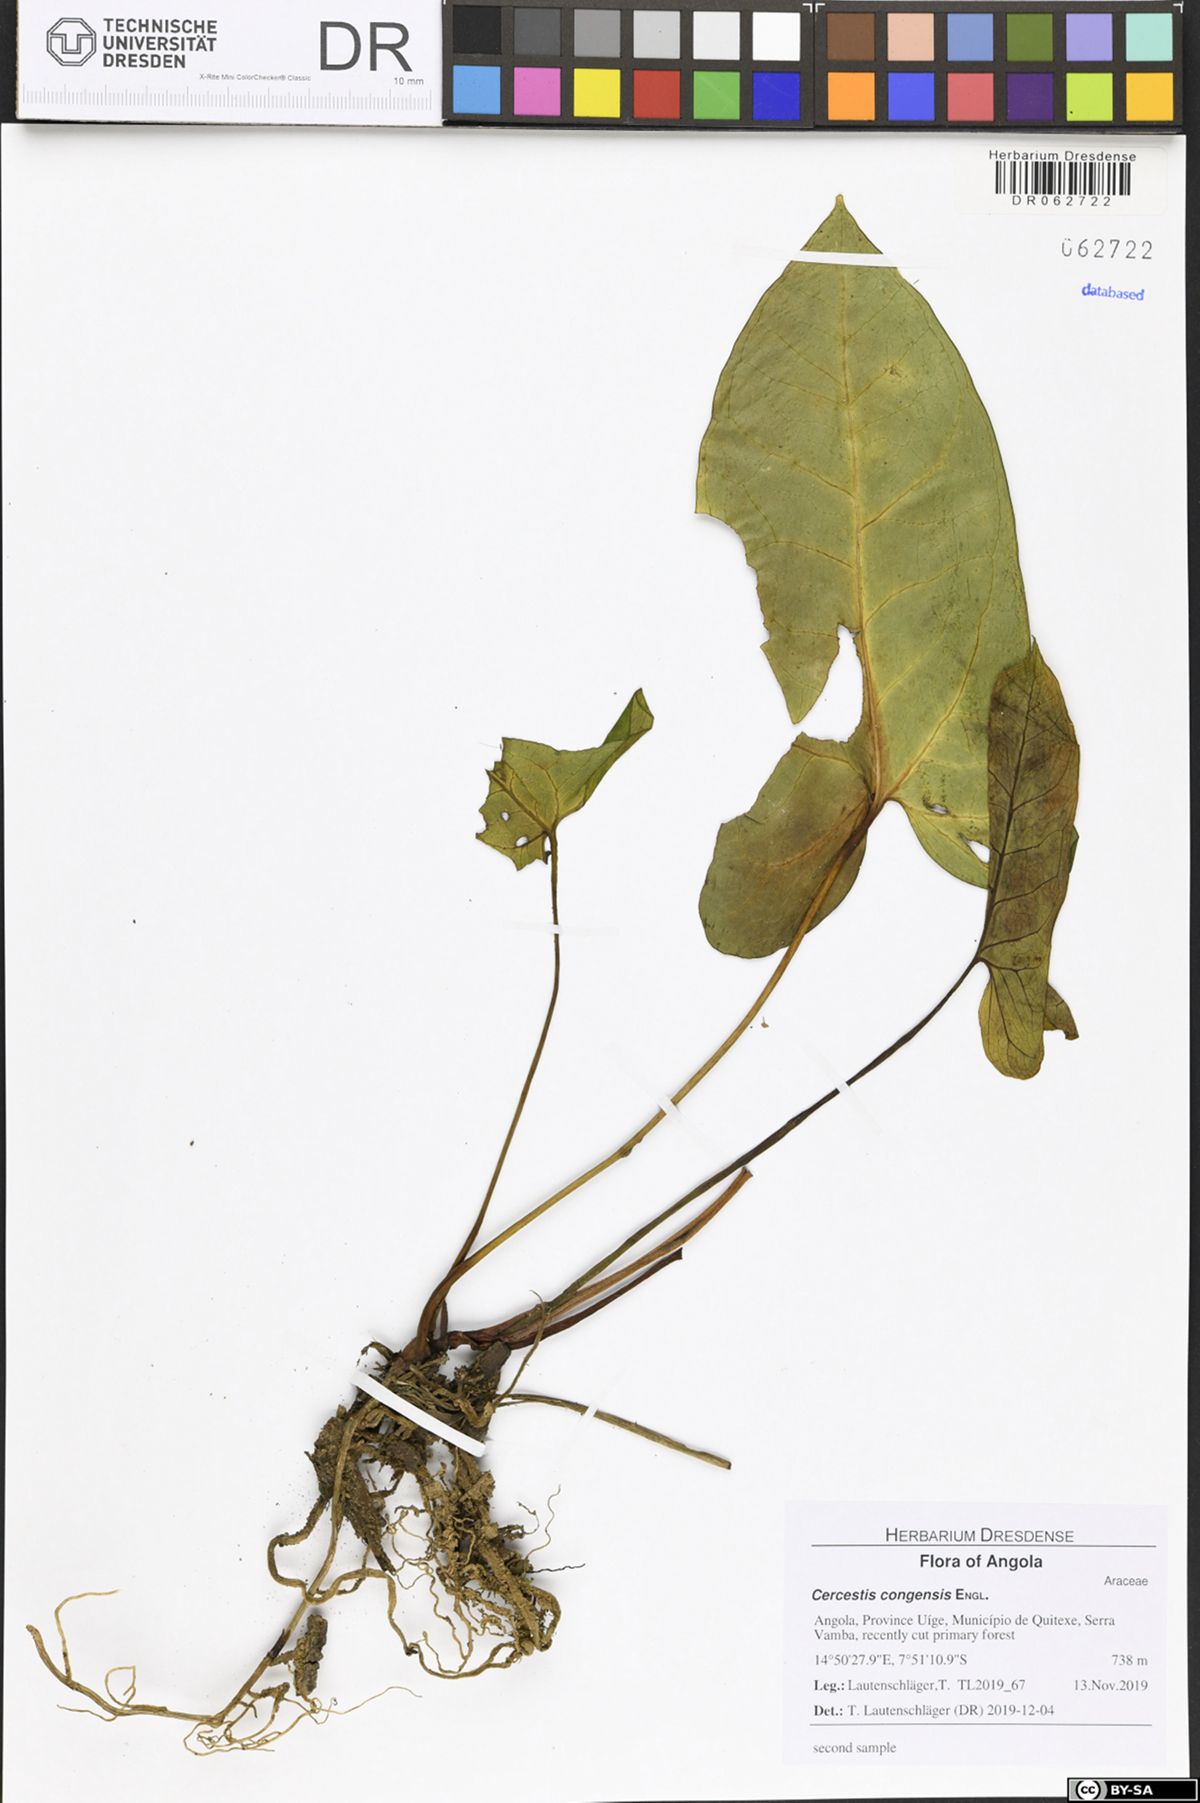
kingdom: Plantae
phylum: Tracheophyta
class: Liliopsida
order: Alismatales
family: Araceae
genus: Cercestis
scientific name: Cercestis congensis
